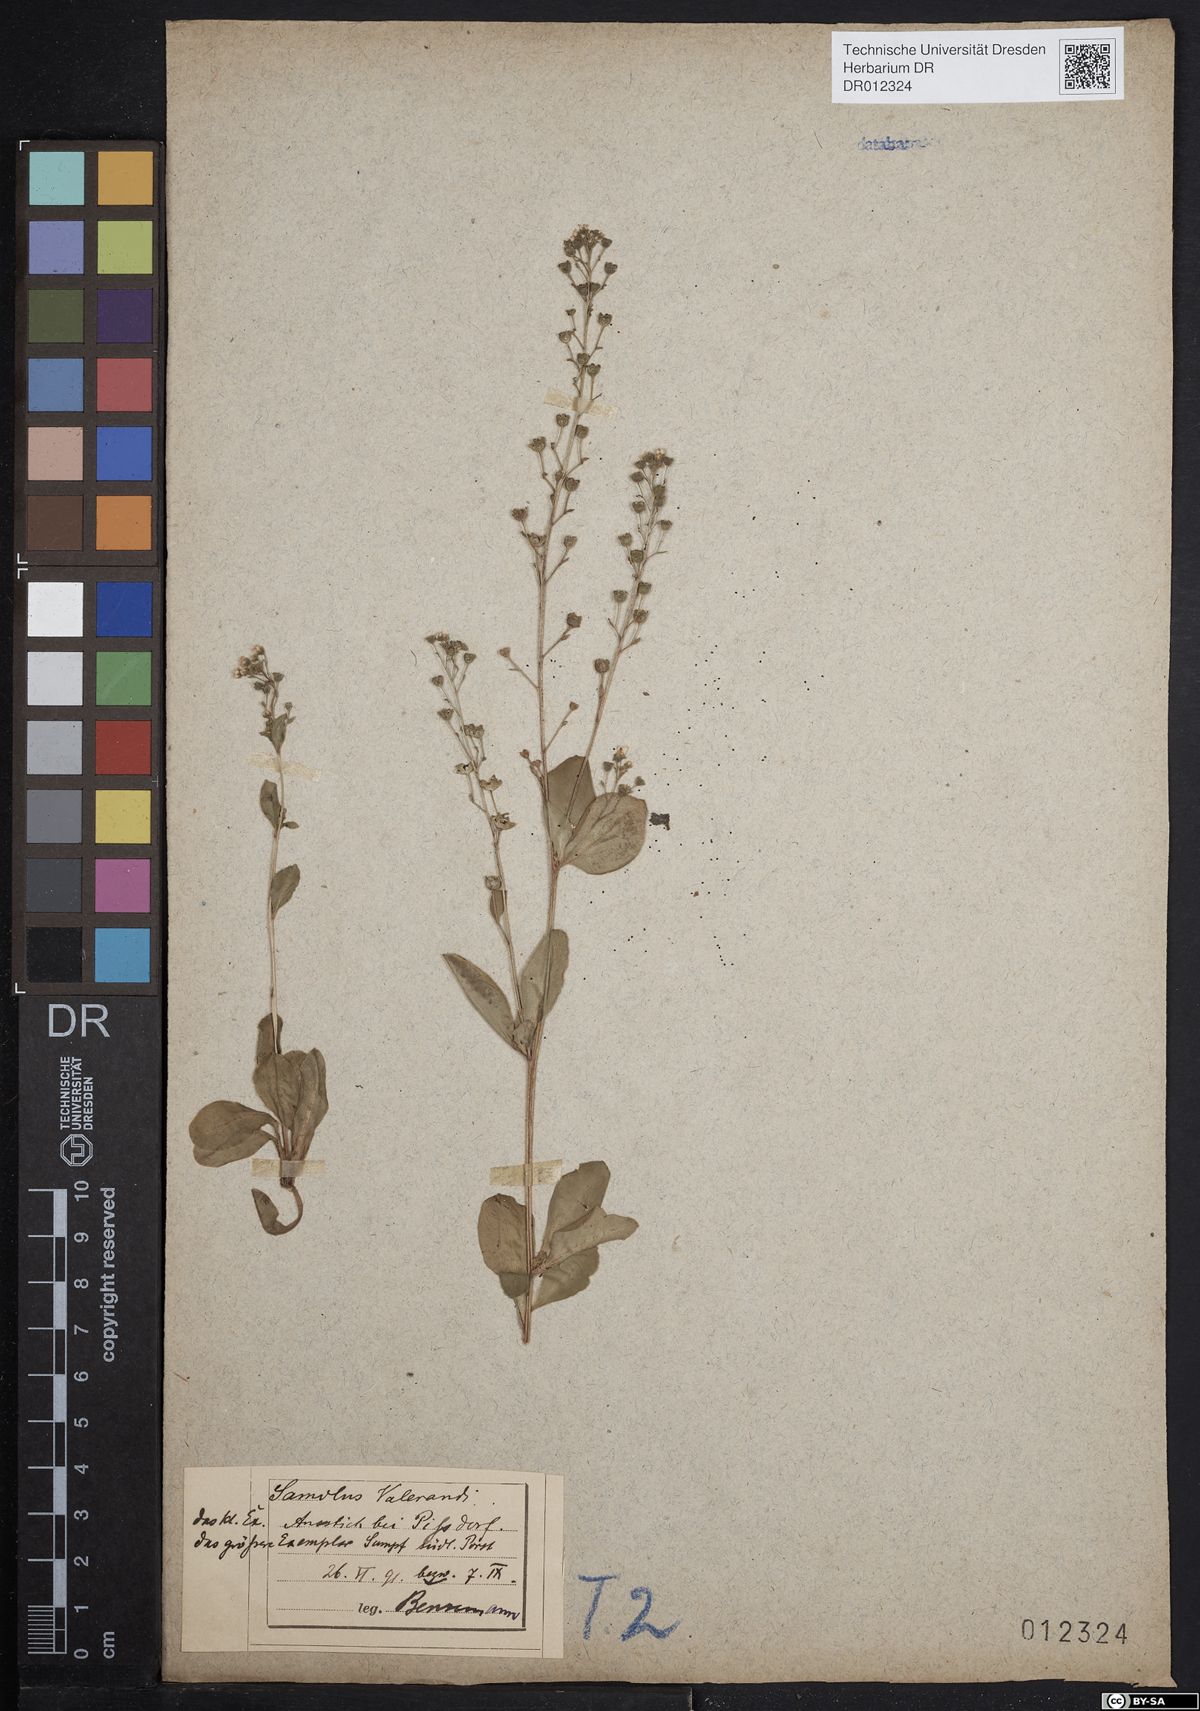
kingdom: Plantae
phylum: Tracheophyta
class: Magnoliopsida
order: Ericales
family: Primulaceae
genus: Samolus
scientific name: Samolus valerandi
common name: Brookweed
